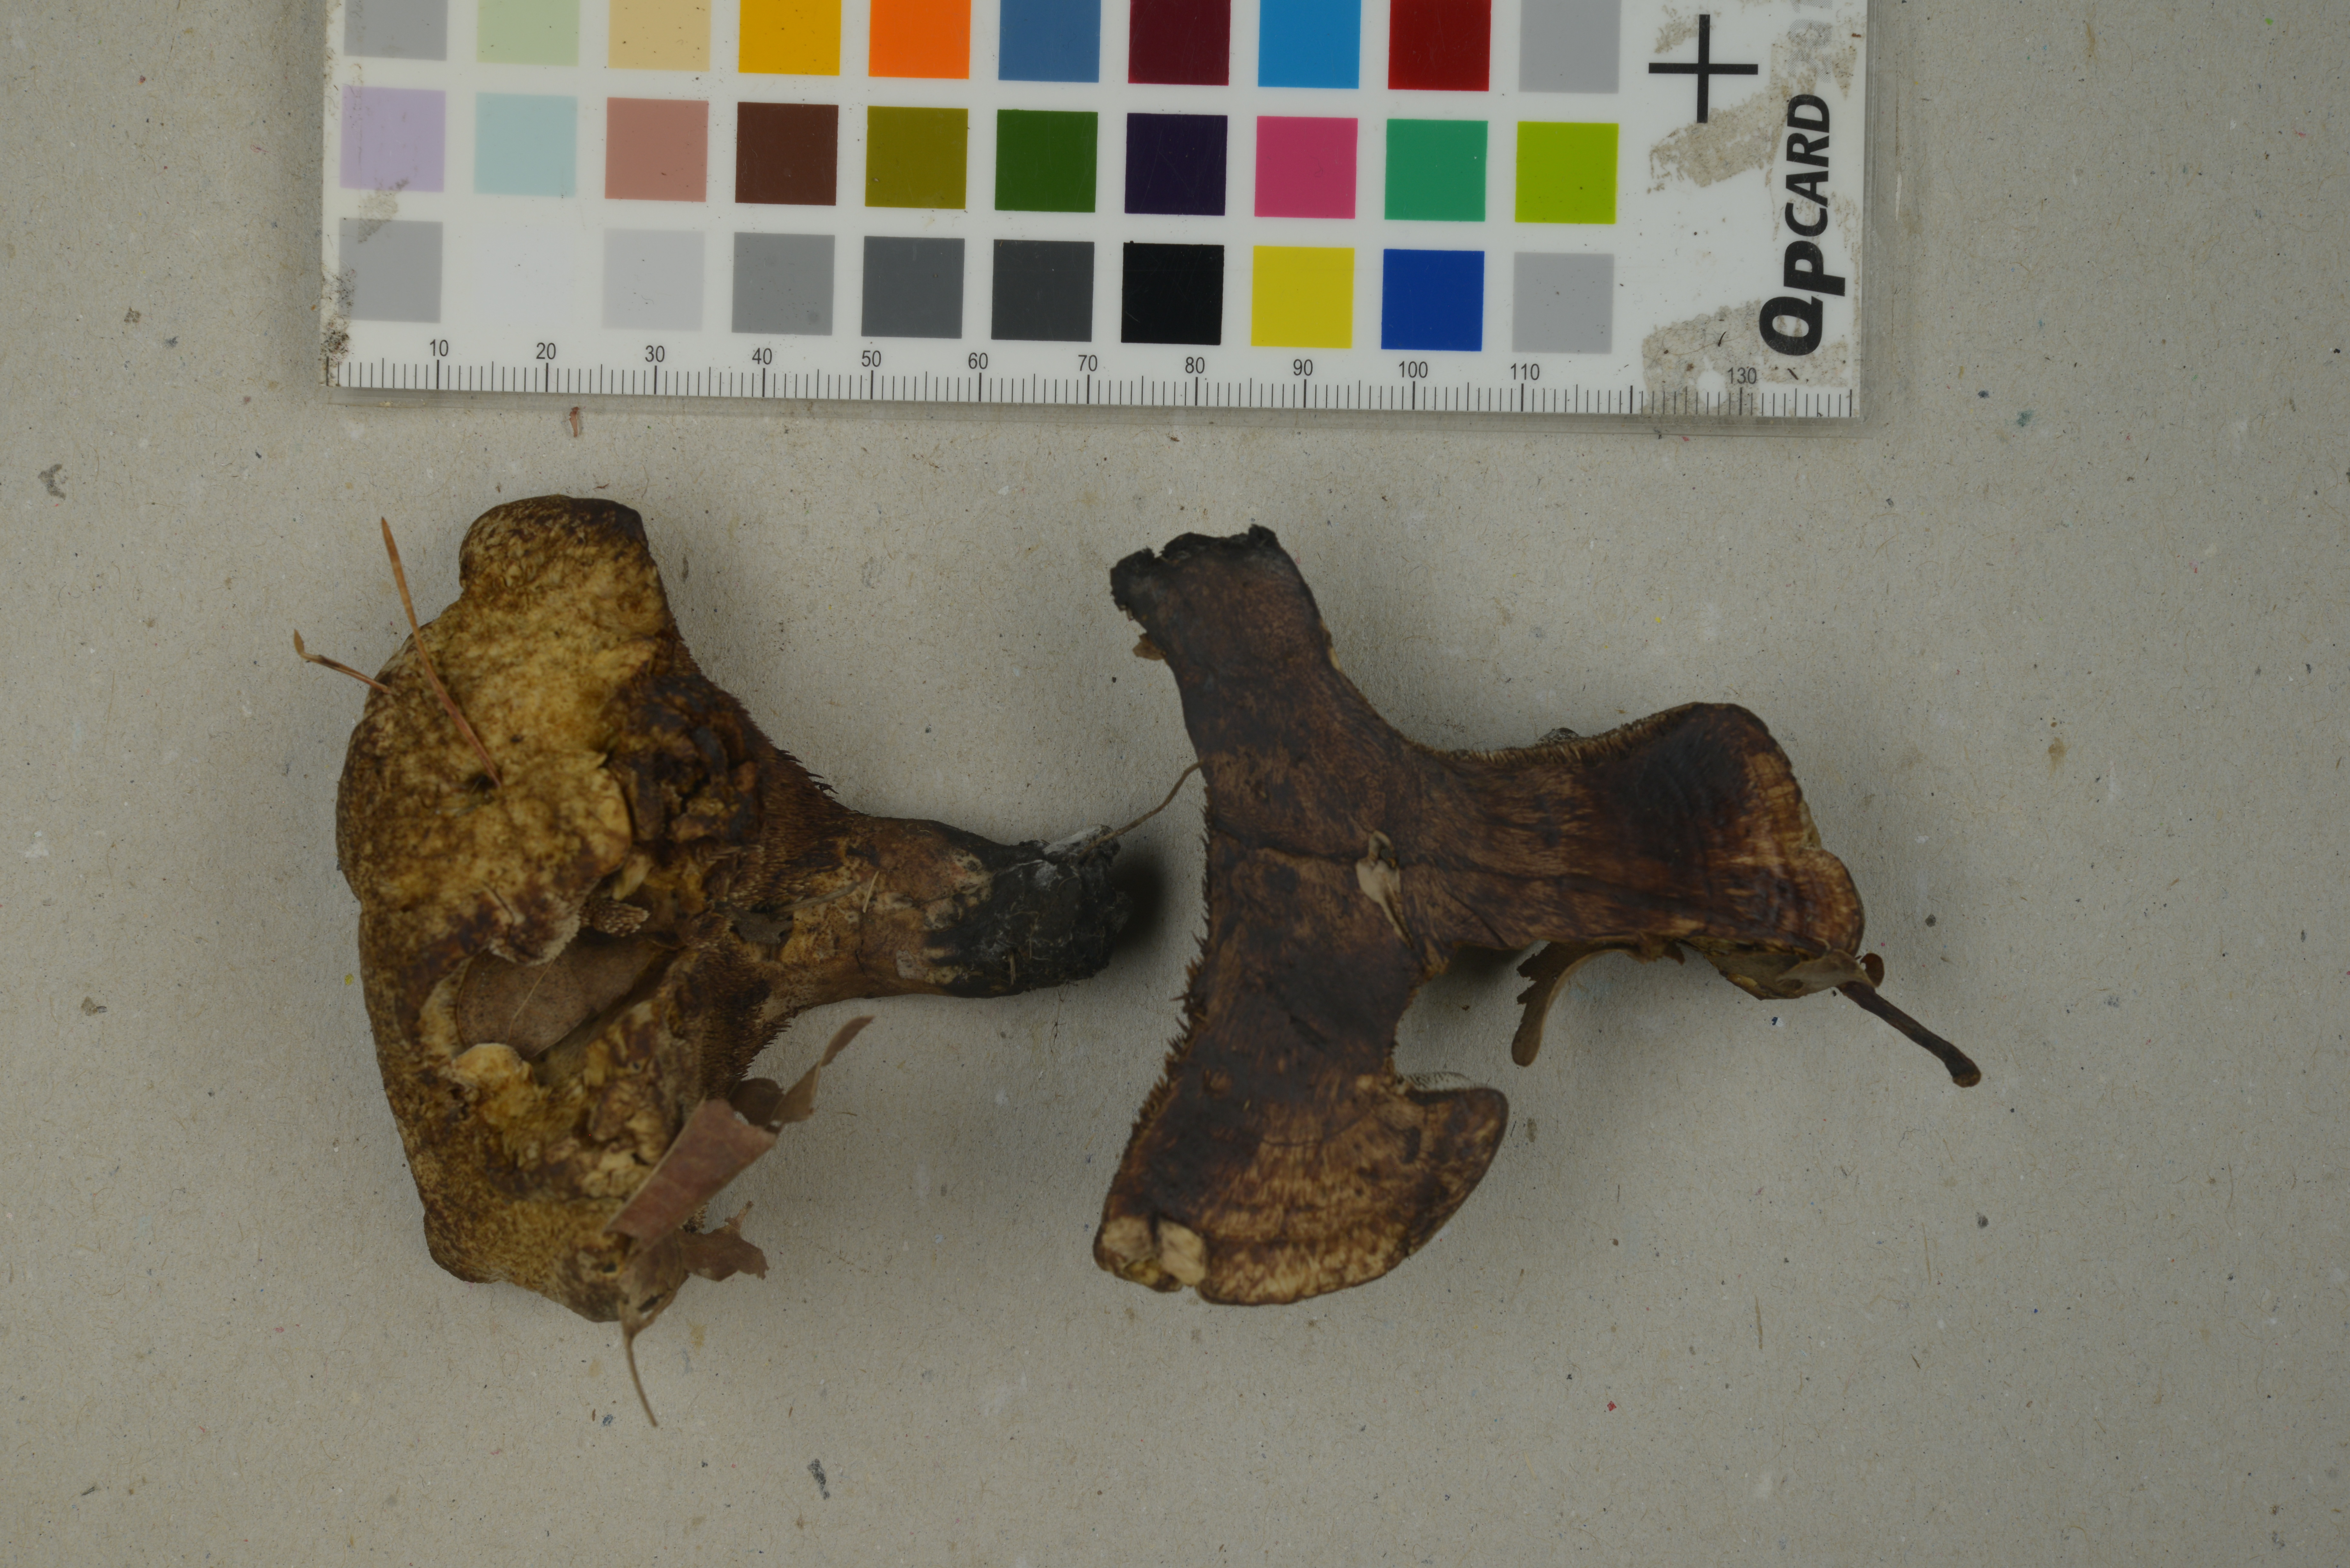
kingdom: Fungi
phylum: Basidiomycota
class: Agaricomycetes
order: Thelephorales
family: Bankeraceae
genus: Hydnellum
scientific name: Hydnellum compactum
